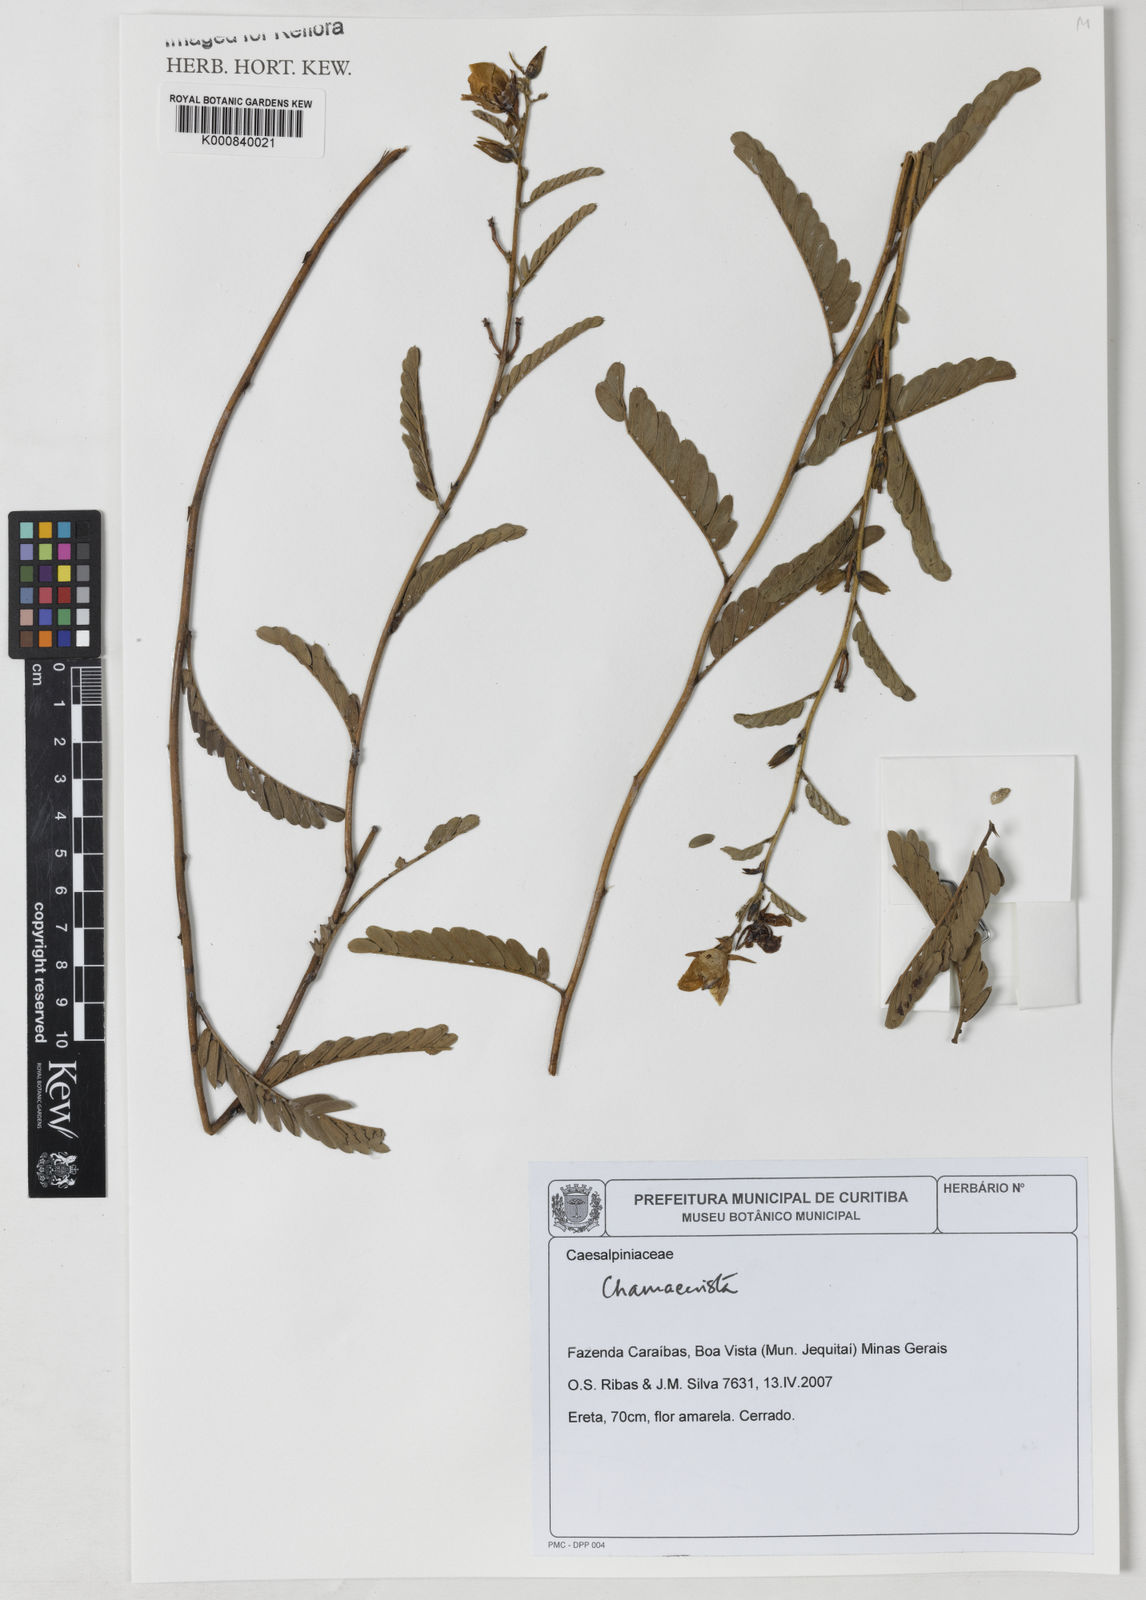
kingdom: Plantae
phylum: Tracheophyta
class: Magnoliopsida
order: Fabales
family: Fabaceae
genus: Chamaecrista
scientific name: Chamaecrista
